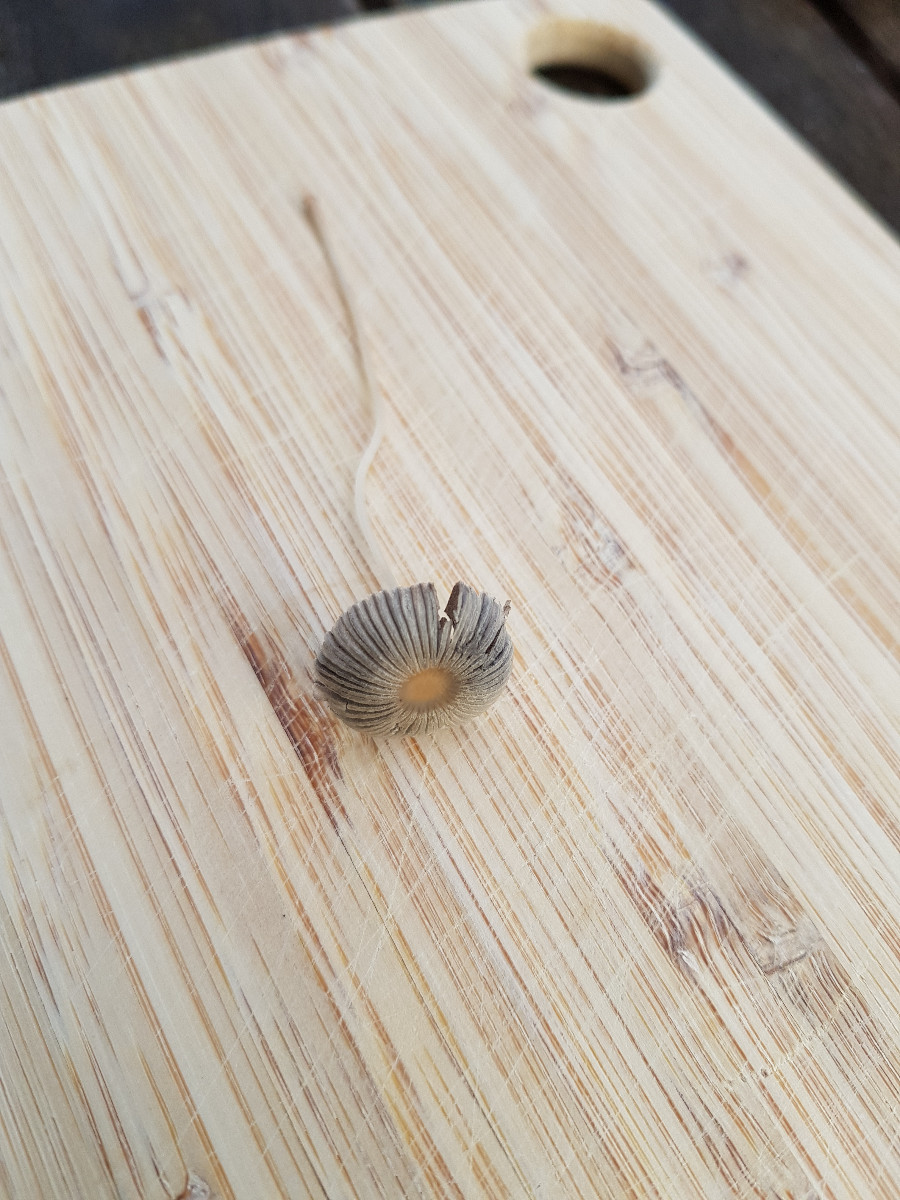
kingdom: Fungi
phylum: Basidiomycota
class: Agaricomycetes
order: Agaricales
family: Psathyrellaceae
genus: Parasola
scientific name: Parasola
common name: hjulhat
